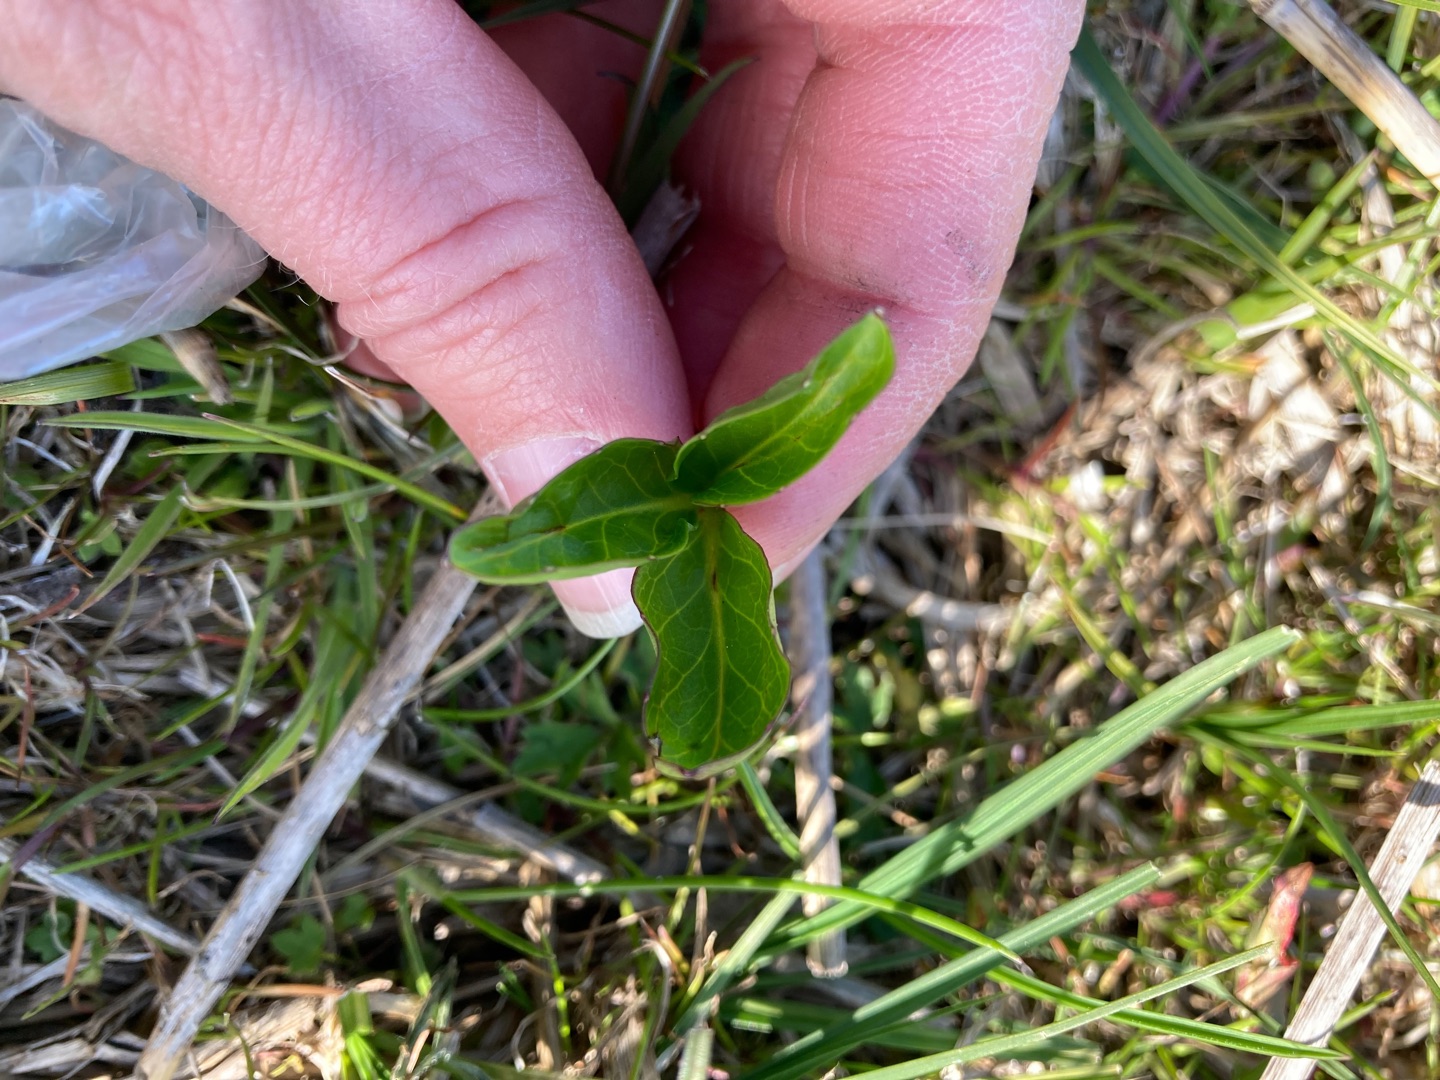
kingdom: Plantae
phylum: Tracheophyta
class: Magnoliopsida
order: Asterales
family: Menyanthaceae
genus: Menyanthes
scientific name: Menyanthes trifoliata
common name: Bukkeblad
